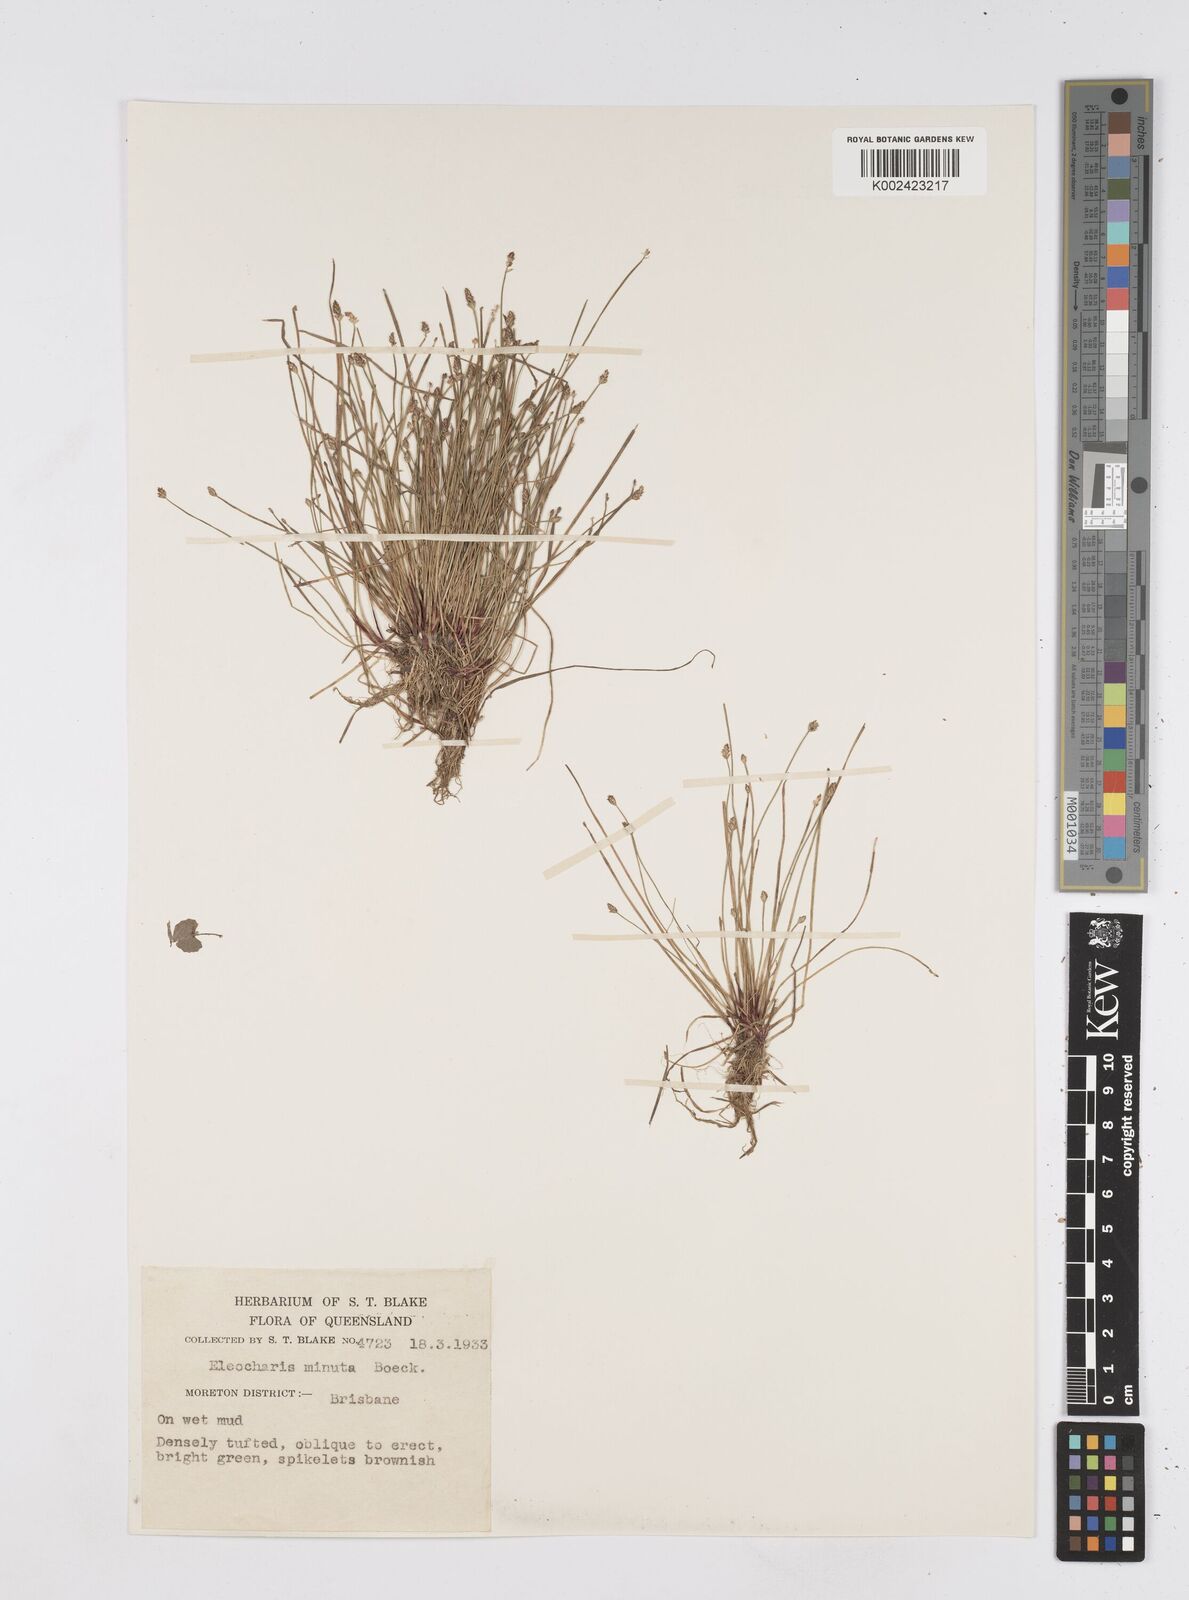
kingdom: Plantae
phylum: Tracheophyta
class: Liliopsida
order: Poales
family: Cyperaceae
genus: Eleocharis
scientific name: Eleocharis minuta
